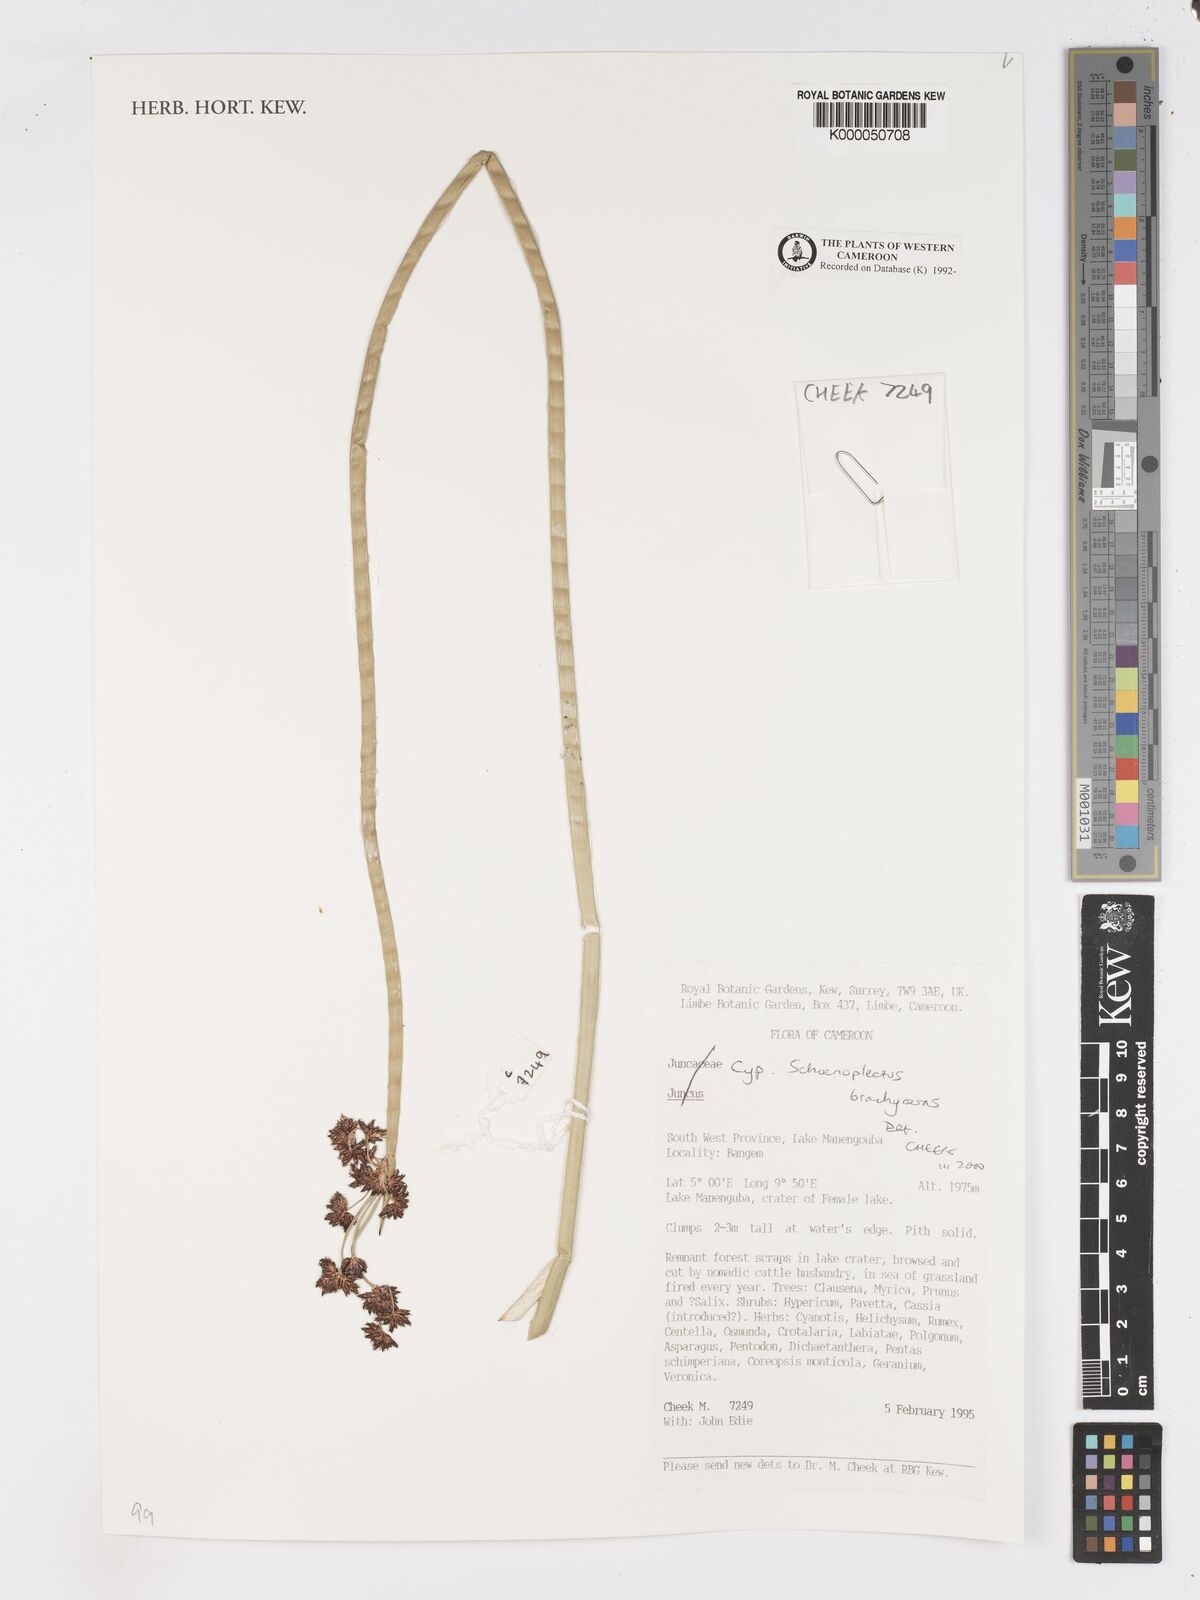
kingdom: Plantae
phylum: Tracheophyta
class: Liliopsida
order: Poales
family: Cyperaceae
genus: Schoenoplectiella
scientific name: Schoenoplectiella brachyceras
